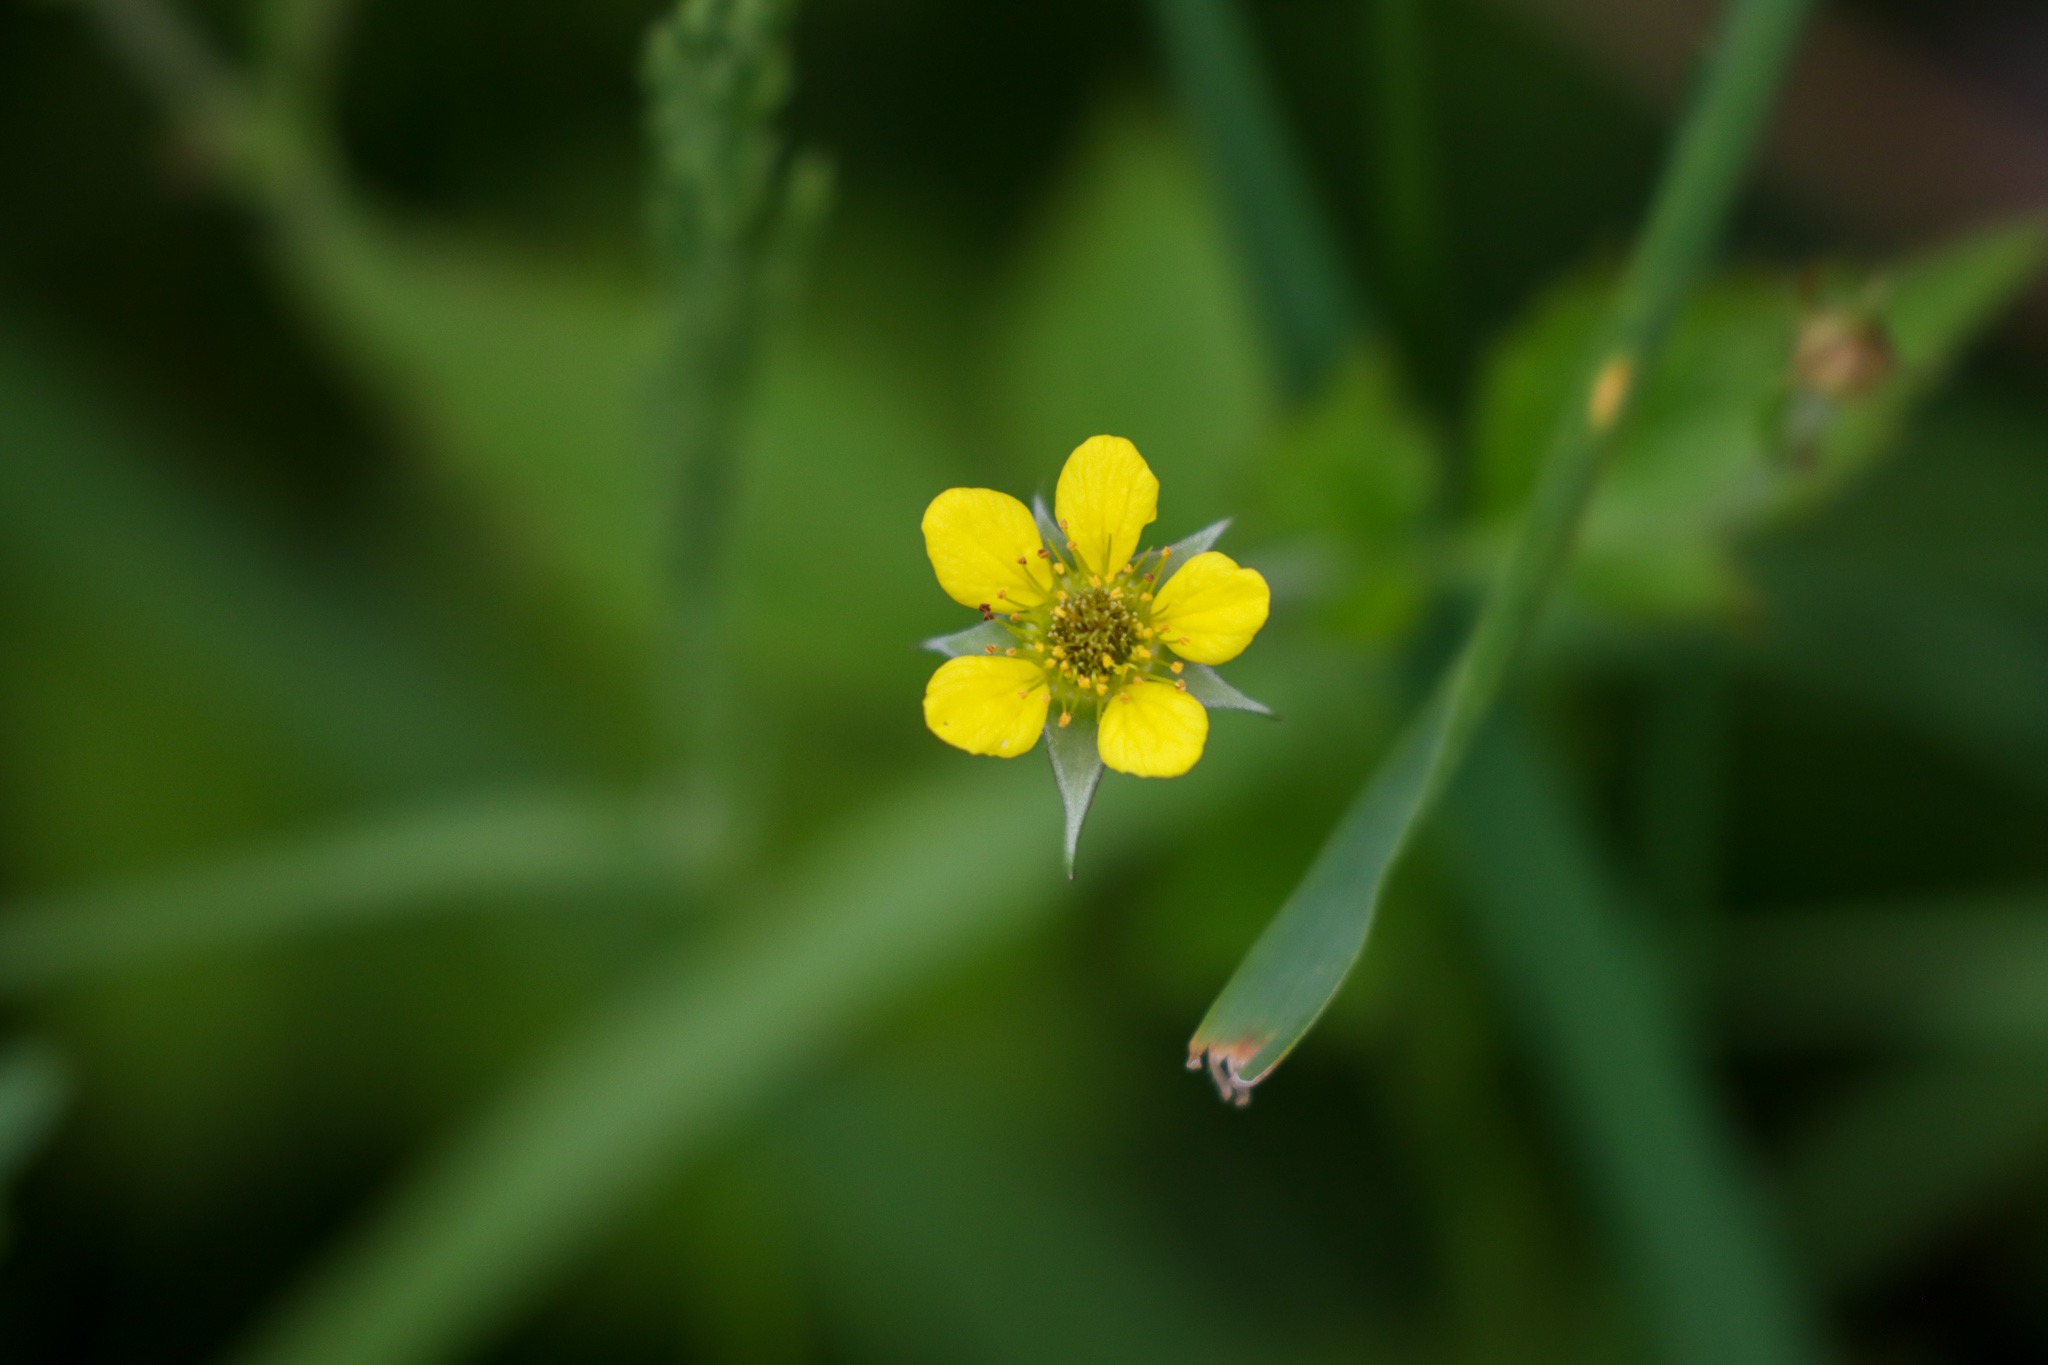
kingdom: Plantae
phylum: Tracheophyta
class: Magnoliopsida
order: Rosales
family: Rosaceae
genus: Geum
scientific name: Geum urbanum
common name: Feber-nellikerod
